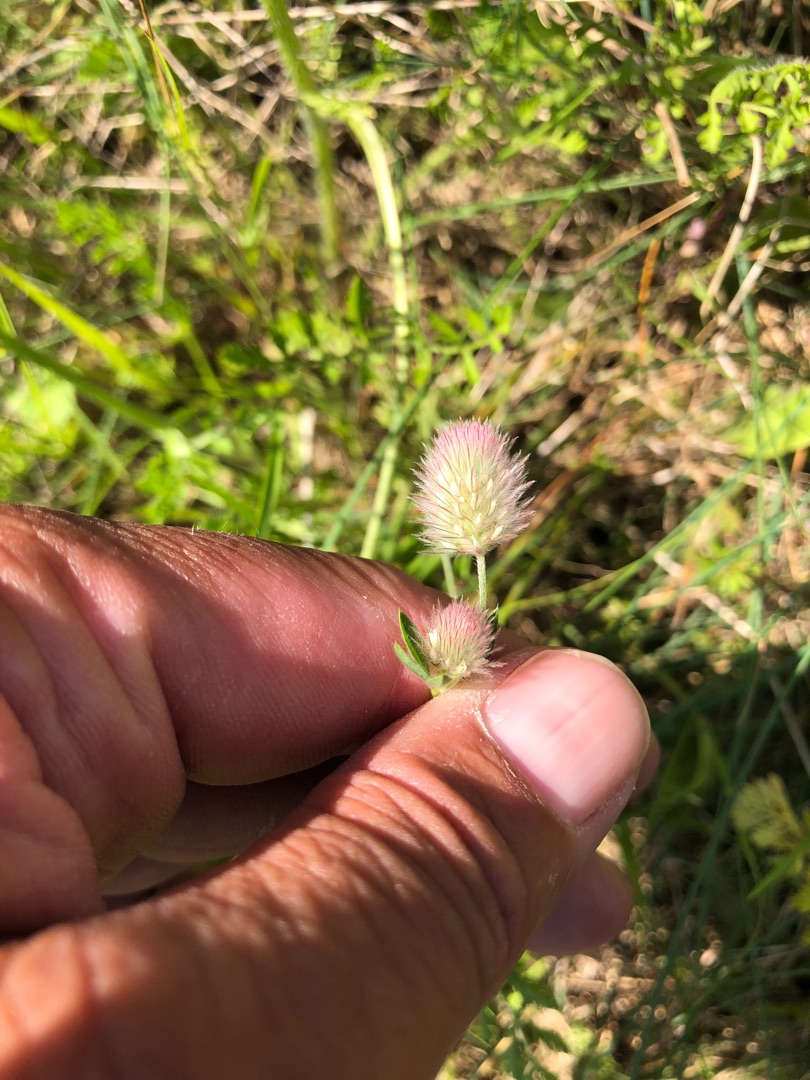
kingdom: Plantae
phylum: Tracheophyta
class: Magnoliopsida
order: Fabales
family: Fabaceae
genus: Trifolium
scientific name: Trifolium arvense
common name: Hare-kløver
